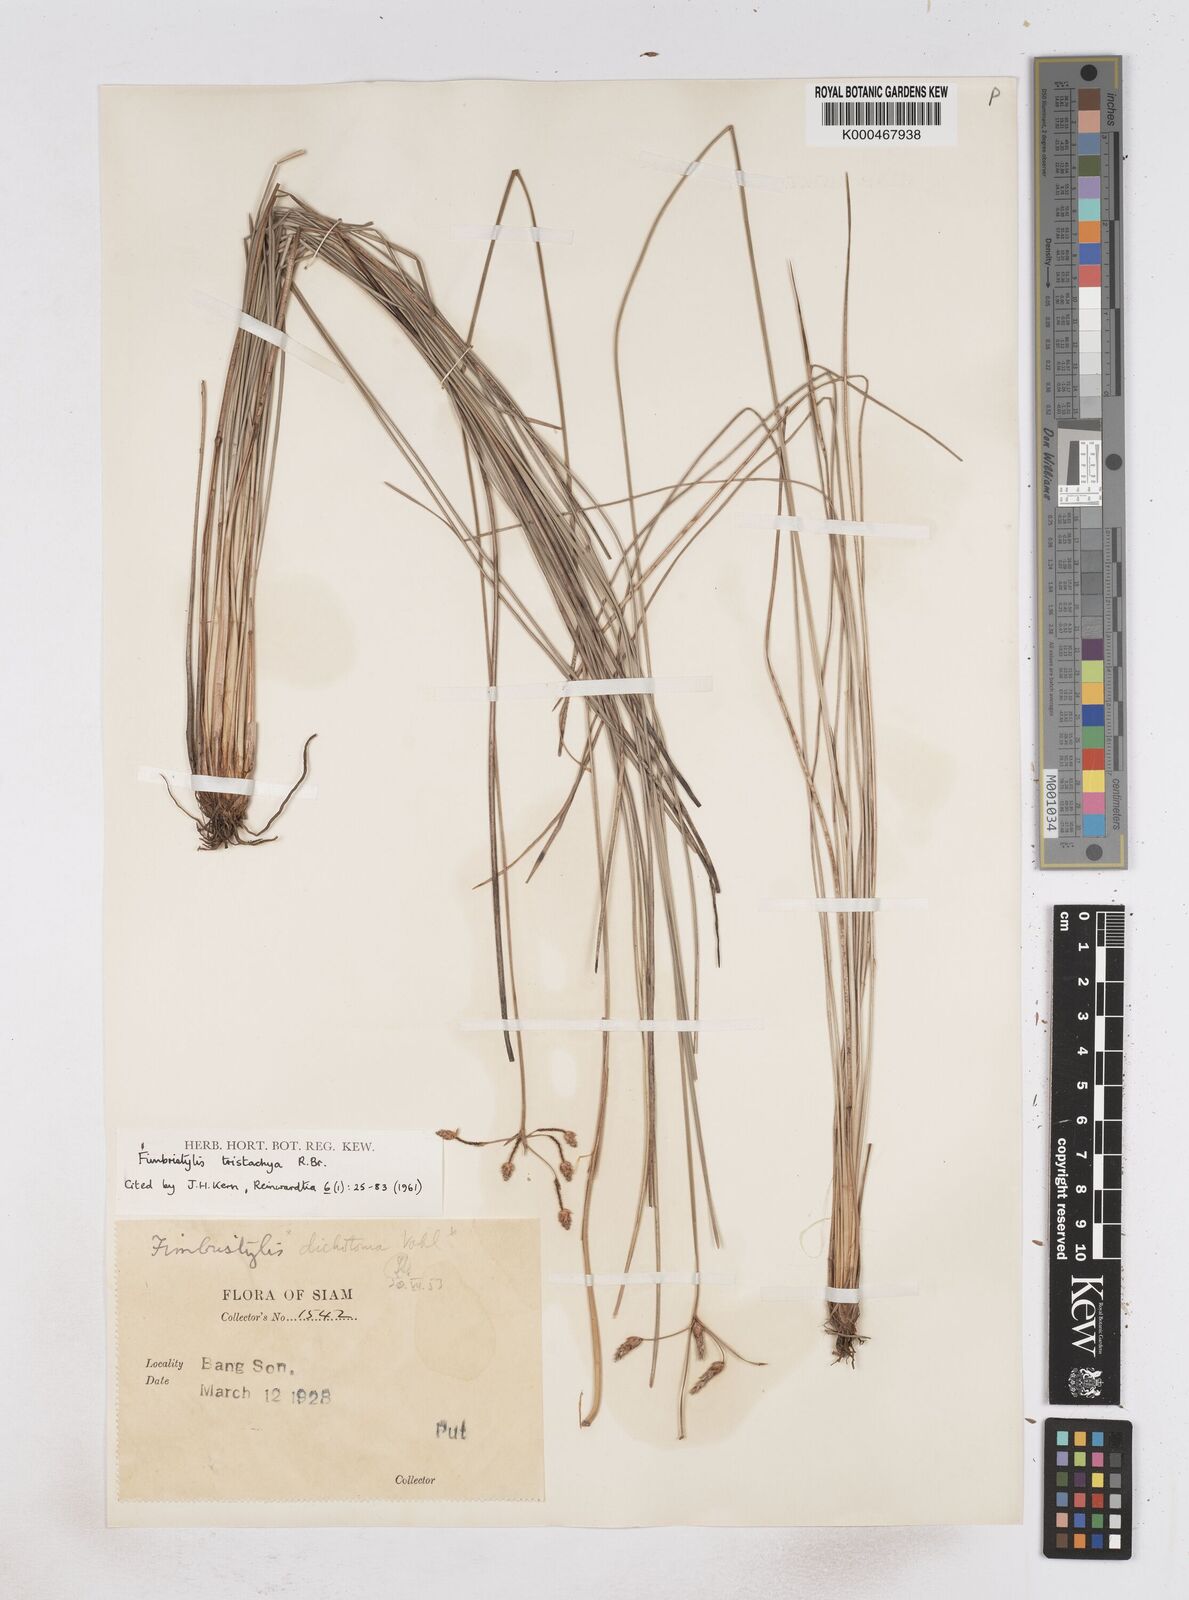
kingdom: Plantae
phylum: Tracheophyta
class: Liliopsida
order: Poales
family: Cyperaceae
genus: Fimbristylis
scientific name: Fimbristylis tristachya
